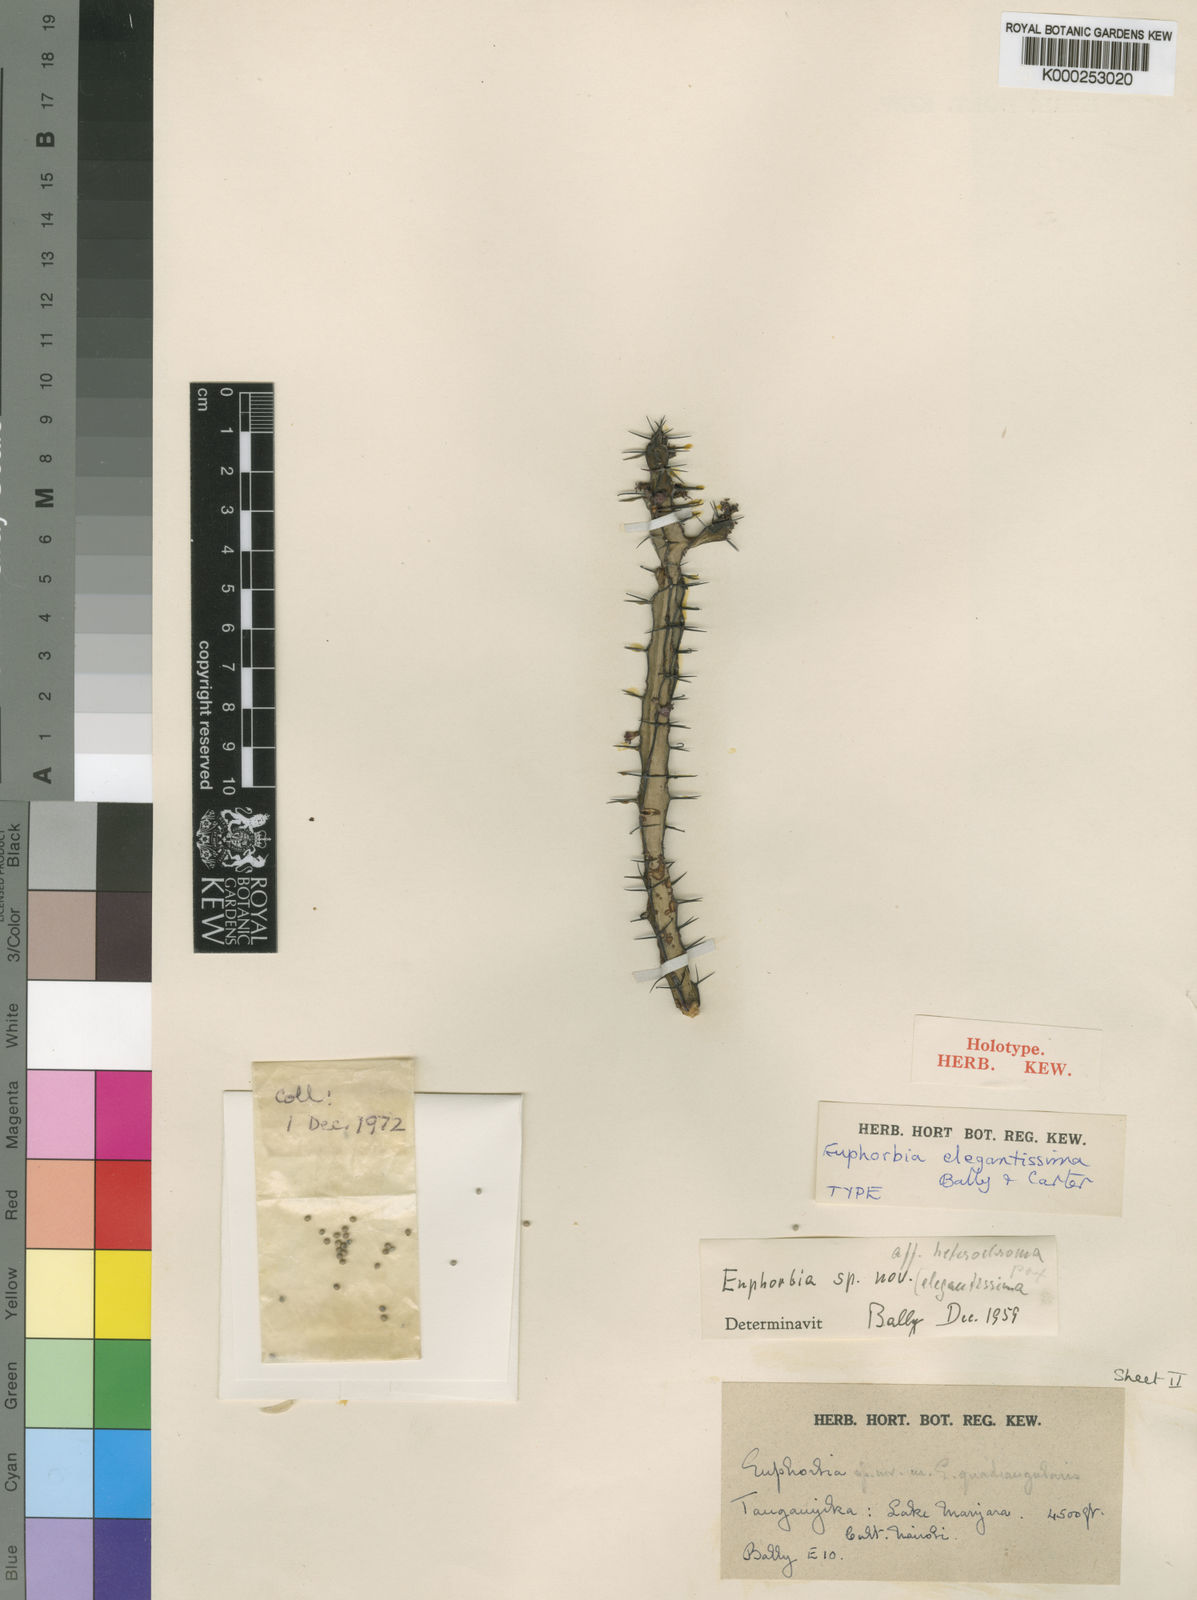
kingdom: Plantae
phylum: Tracheophyta
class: Magnoliopsida
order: Malpighiales
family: Euphorbiaceae
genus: Euphorbia
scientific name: Euphorbia elegantissima
